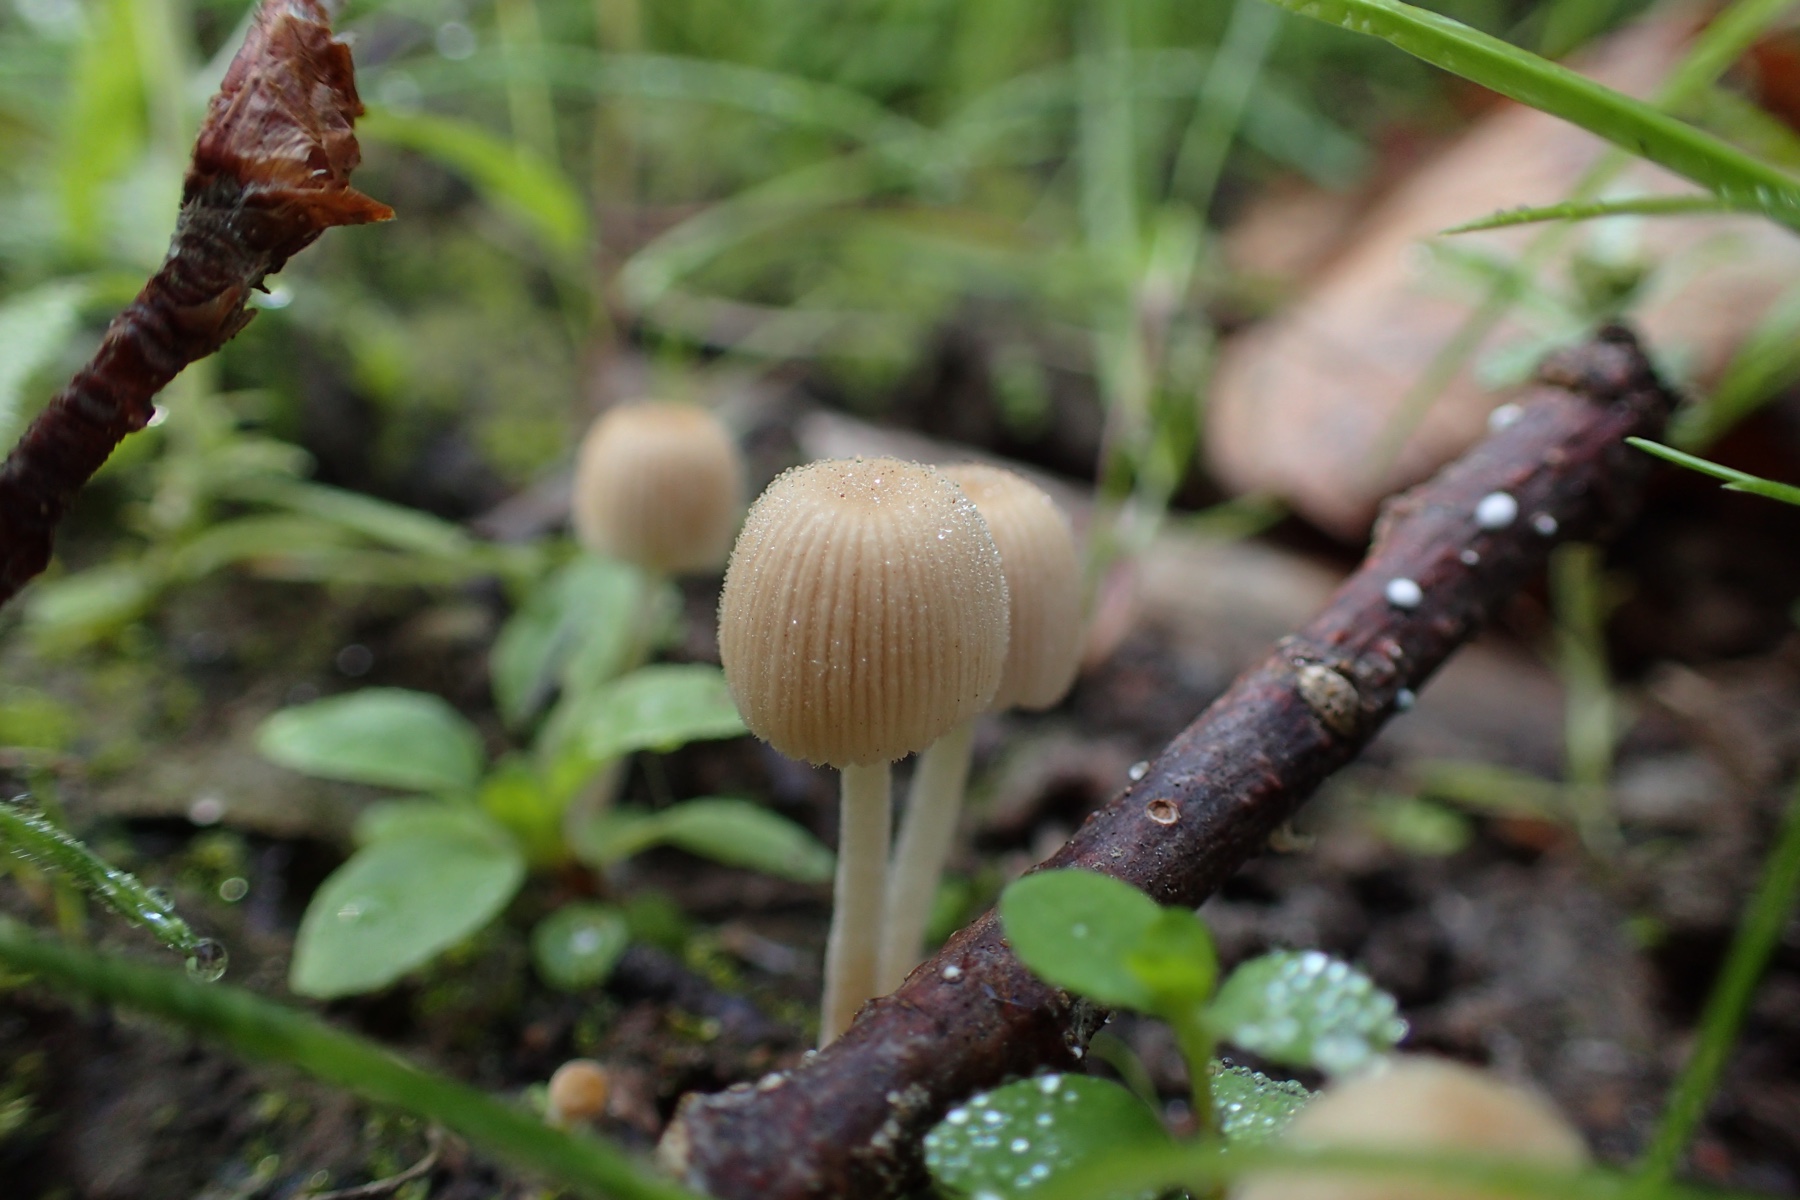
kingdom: Fungi
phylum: Basidiomycota
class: Agaricomycetes
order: Agaricales
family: Psathyrellaceae
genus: Tulosesus
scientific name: Tulosesus
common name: blækhat
